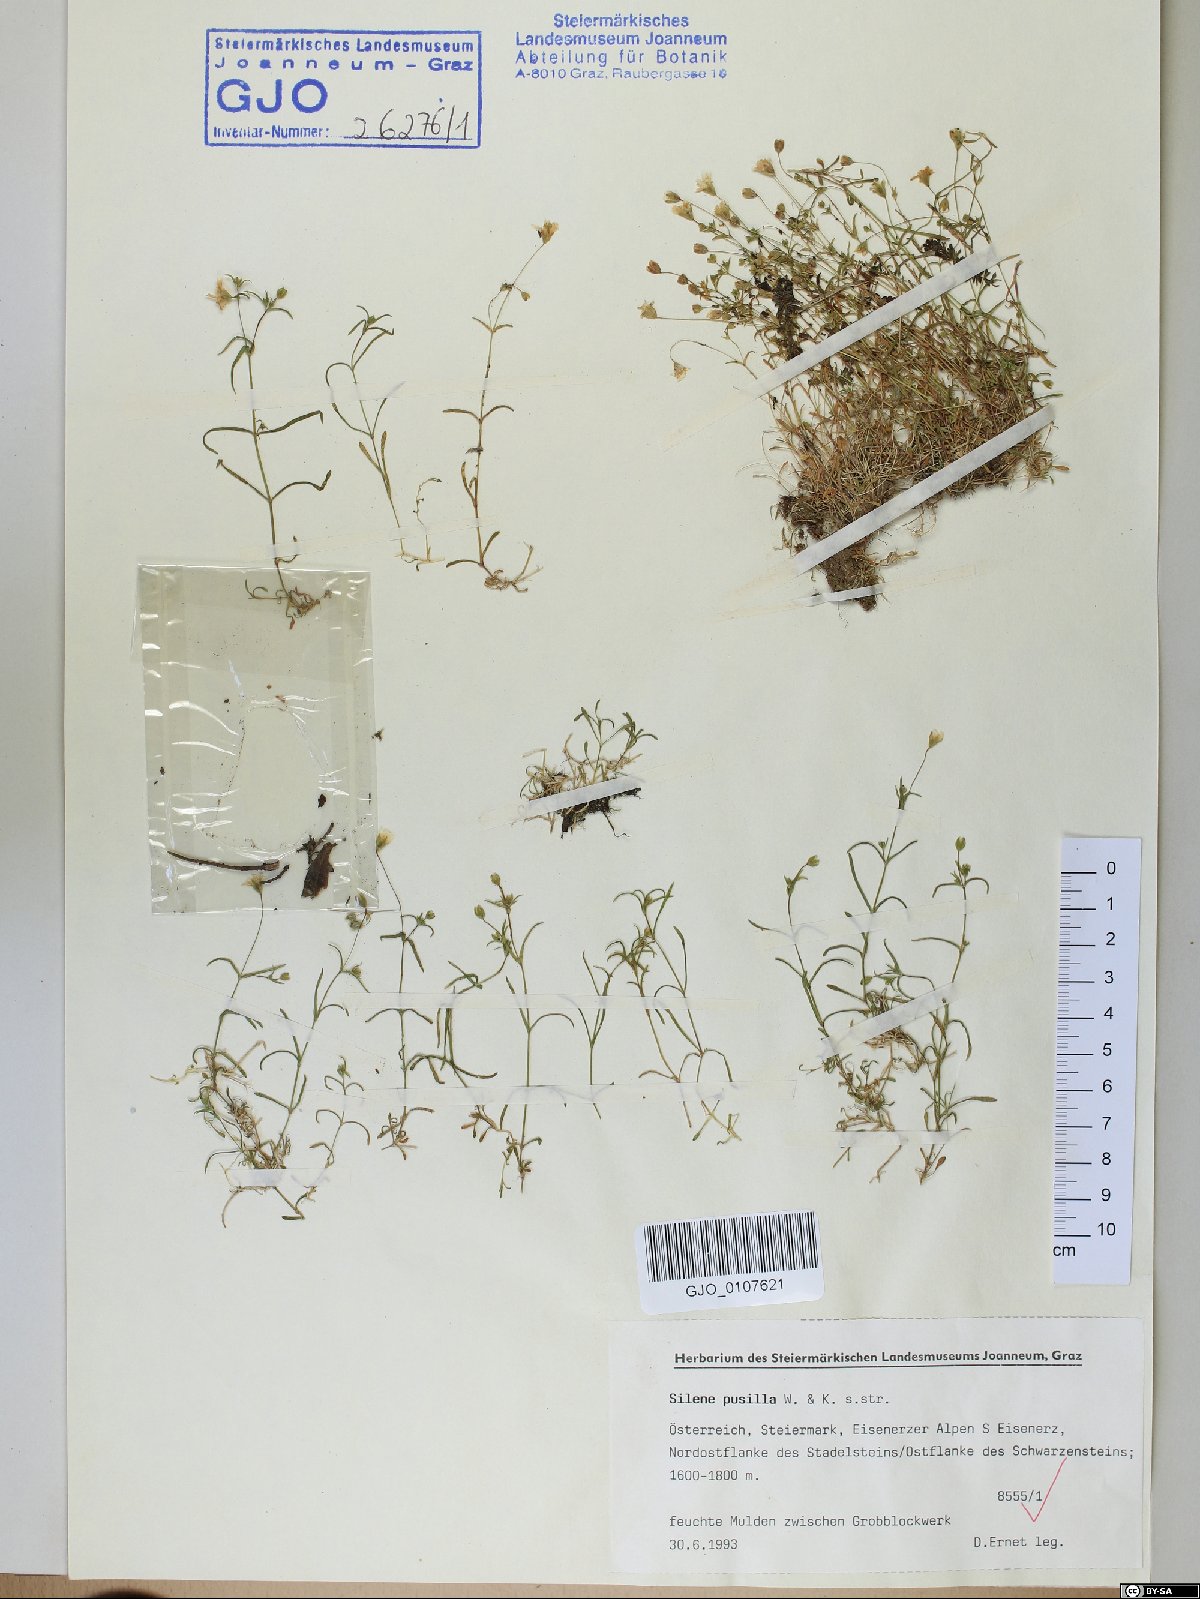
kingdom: Plantae
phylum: Tracheophyta
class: Magnoliopsida
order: Caryophyllales
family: Caryophyllaceae
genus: Heliosperma
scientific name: Heliosperma pusillum
